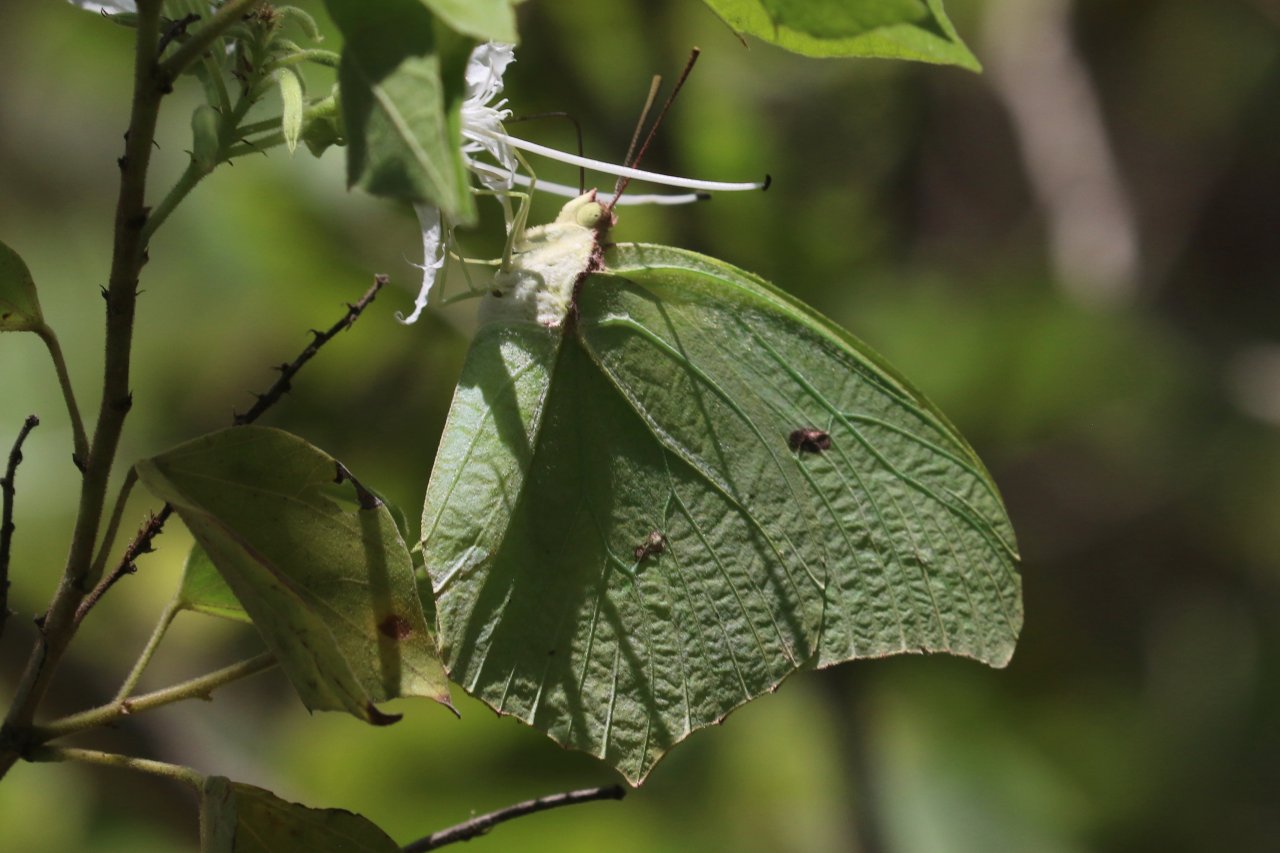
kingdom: Animalia
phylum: Arthropoda
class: Insecta
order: Lepidoptera
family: Pieridae
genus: Anteos
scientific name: Anteos maerula
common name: Yellow Angled-Sulphur
